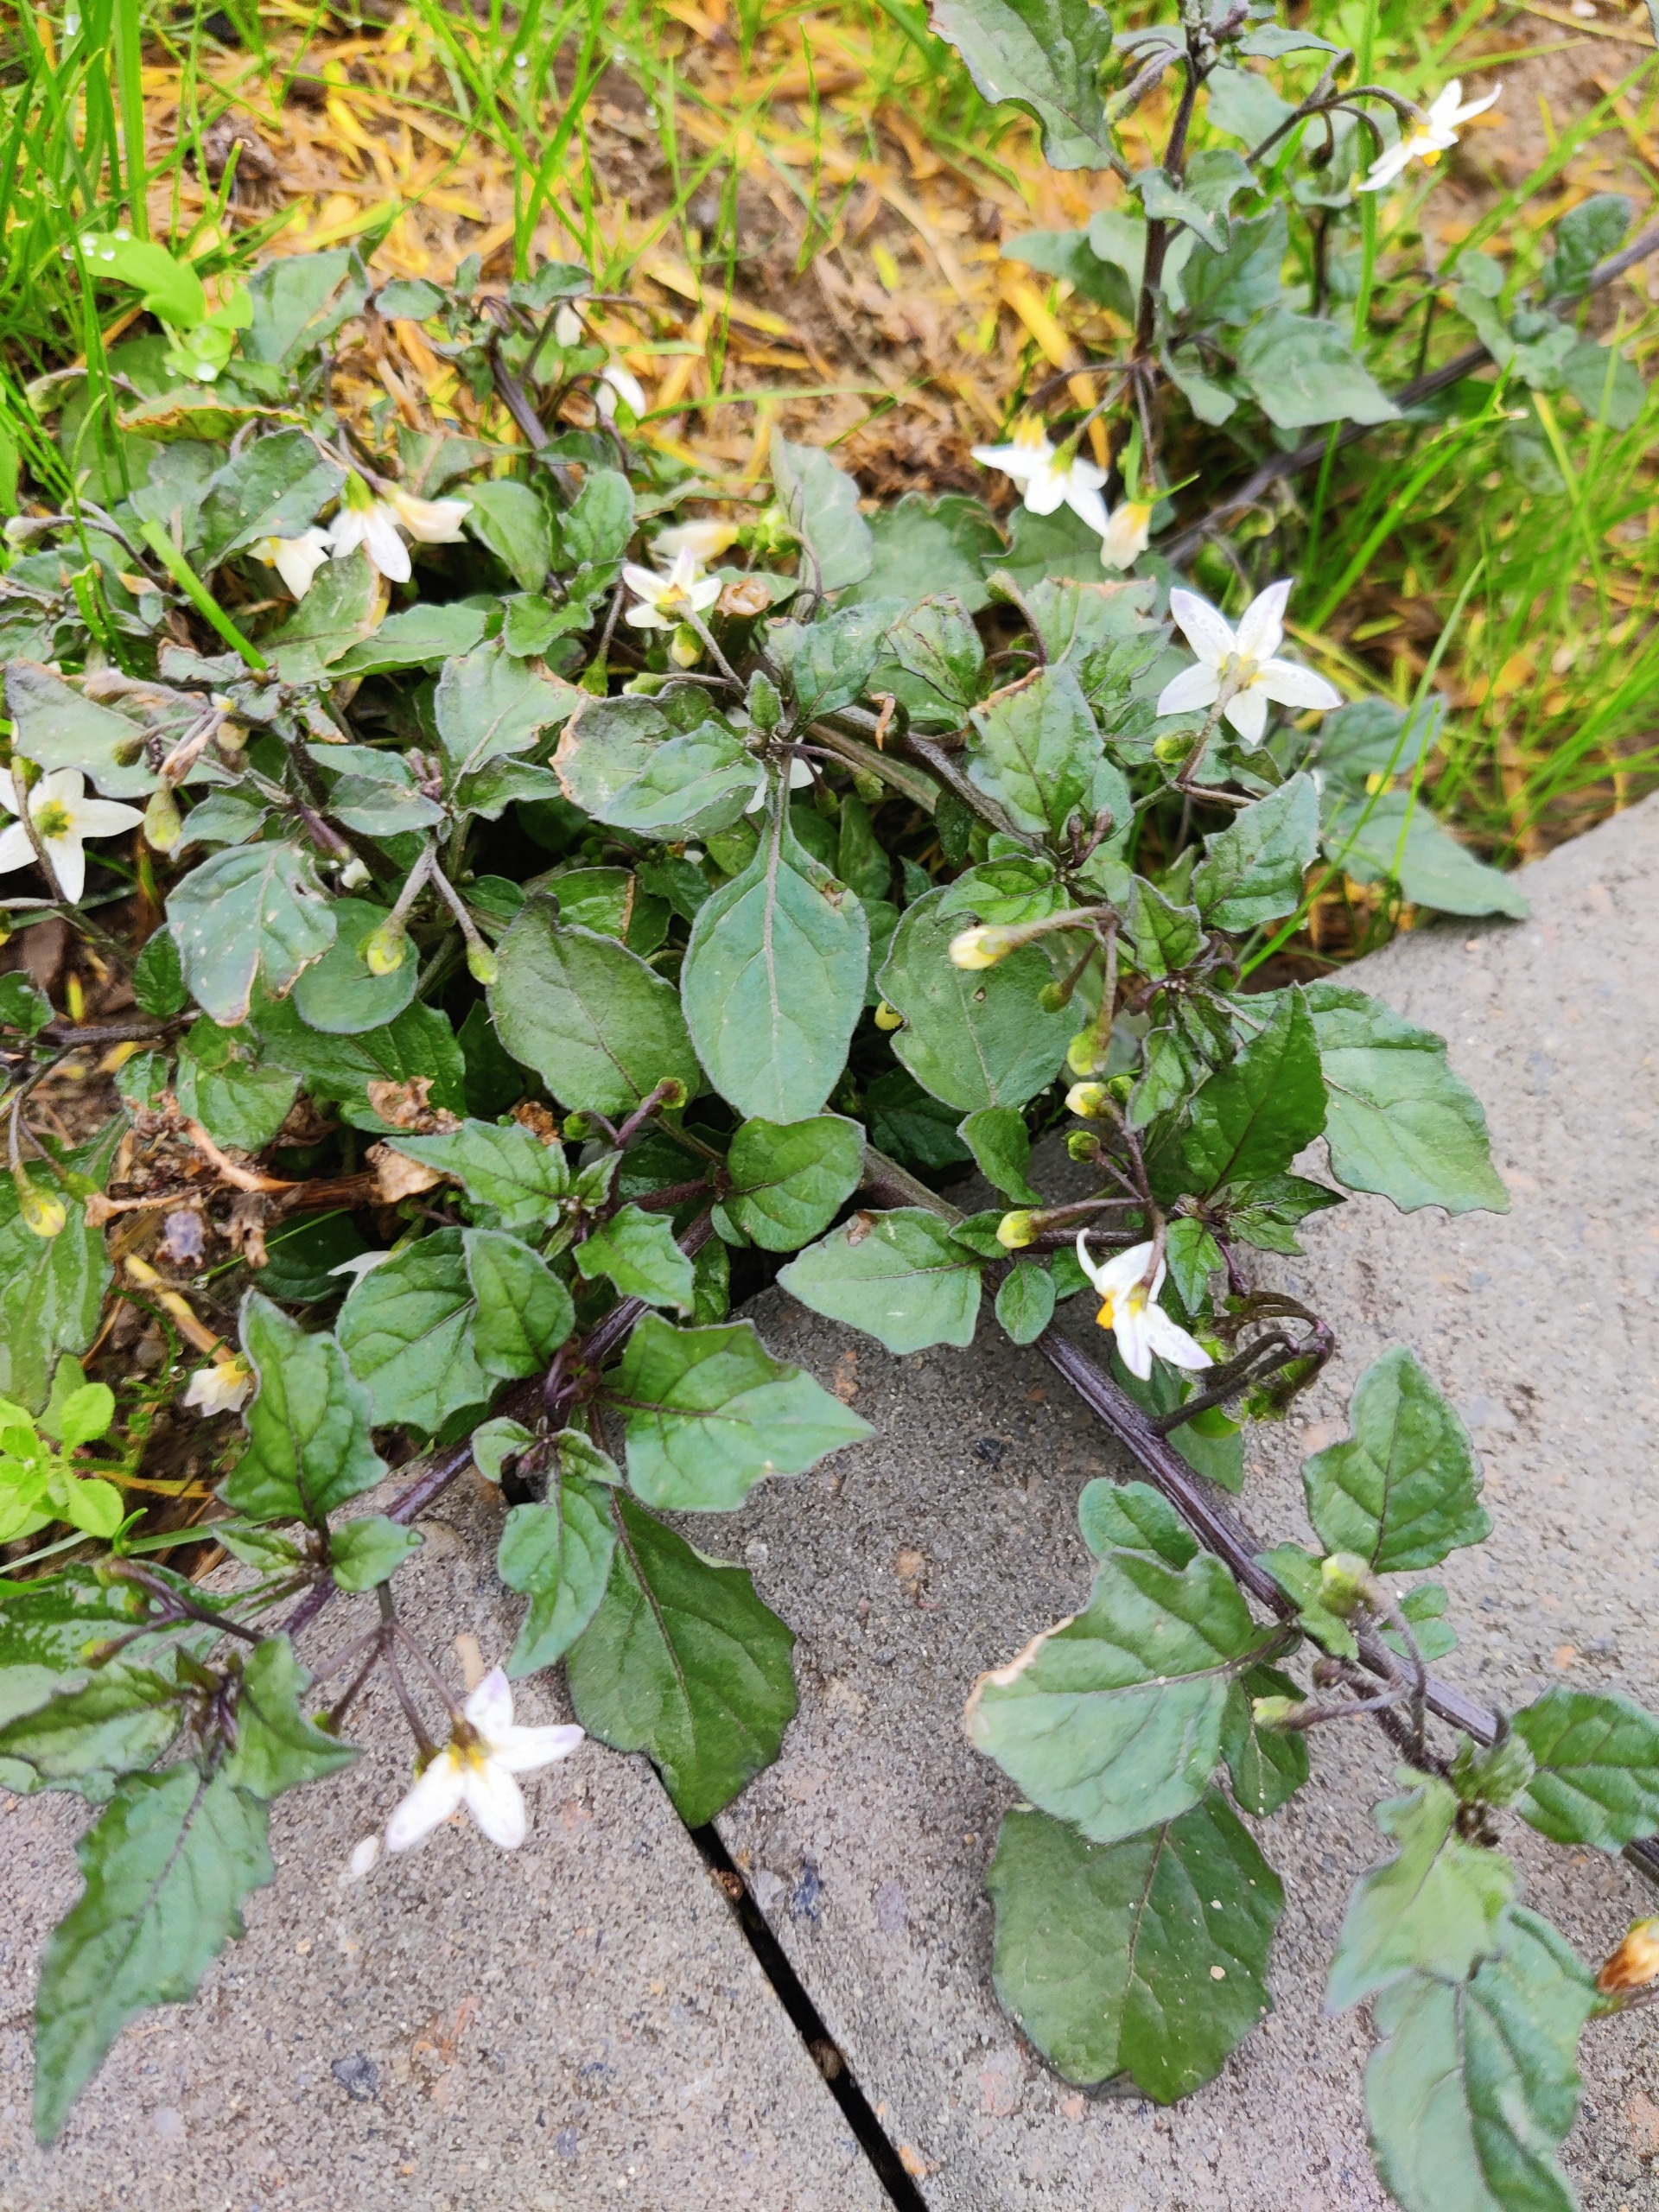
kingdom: Plantae
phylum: Tracheophyta
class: Magnoliopsida
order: Solanales
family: Solanaceae
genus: Solanum
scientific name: Solanum nigrum
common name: Sort natskygge
